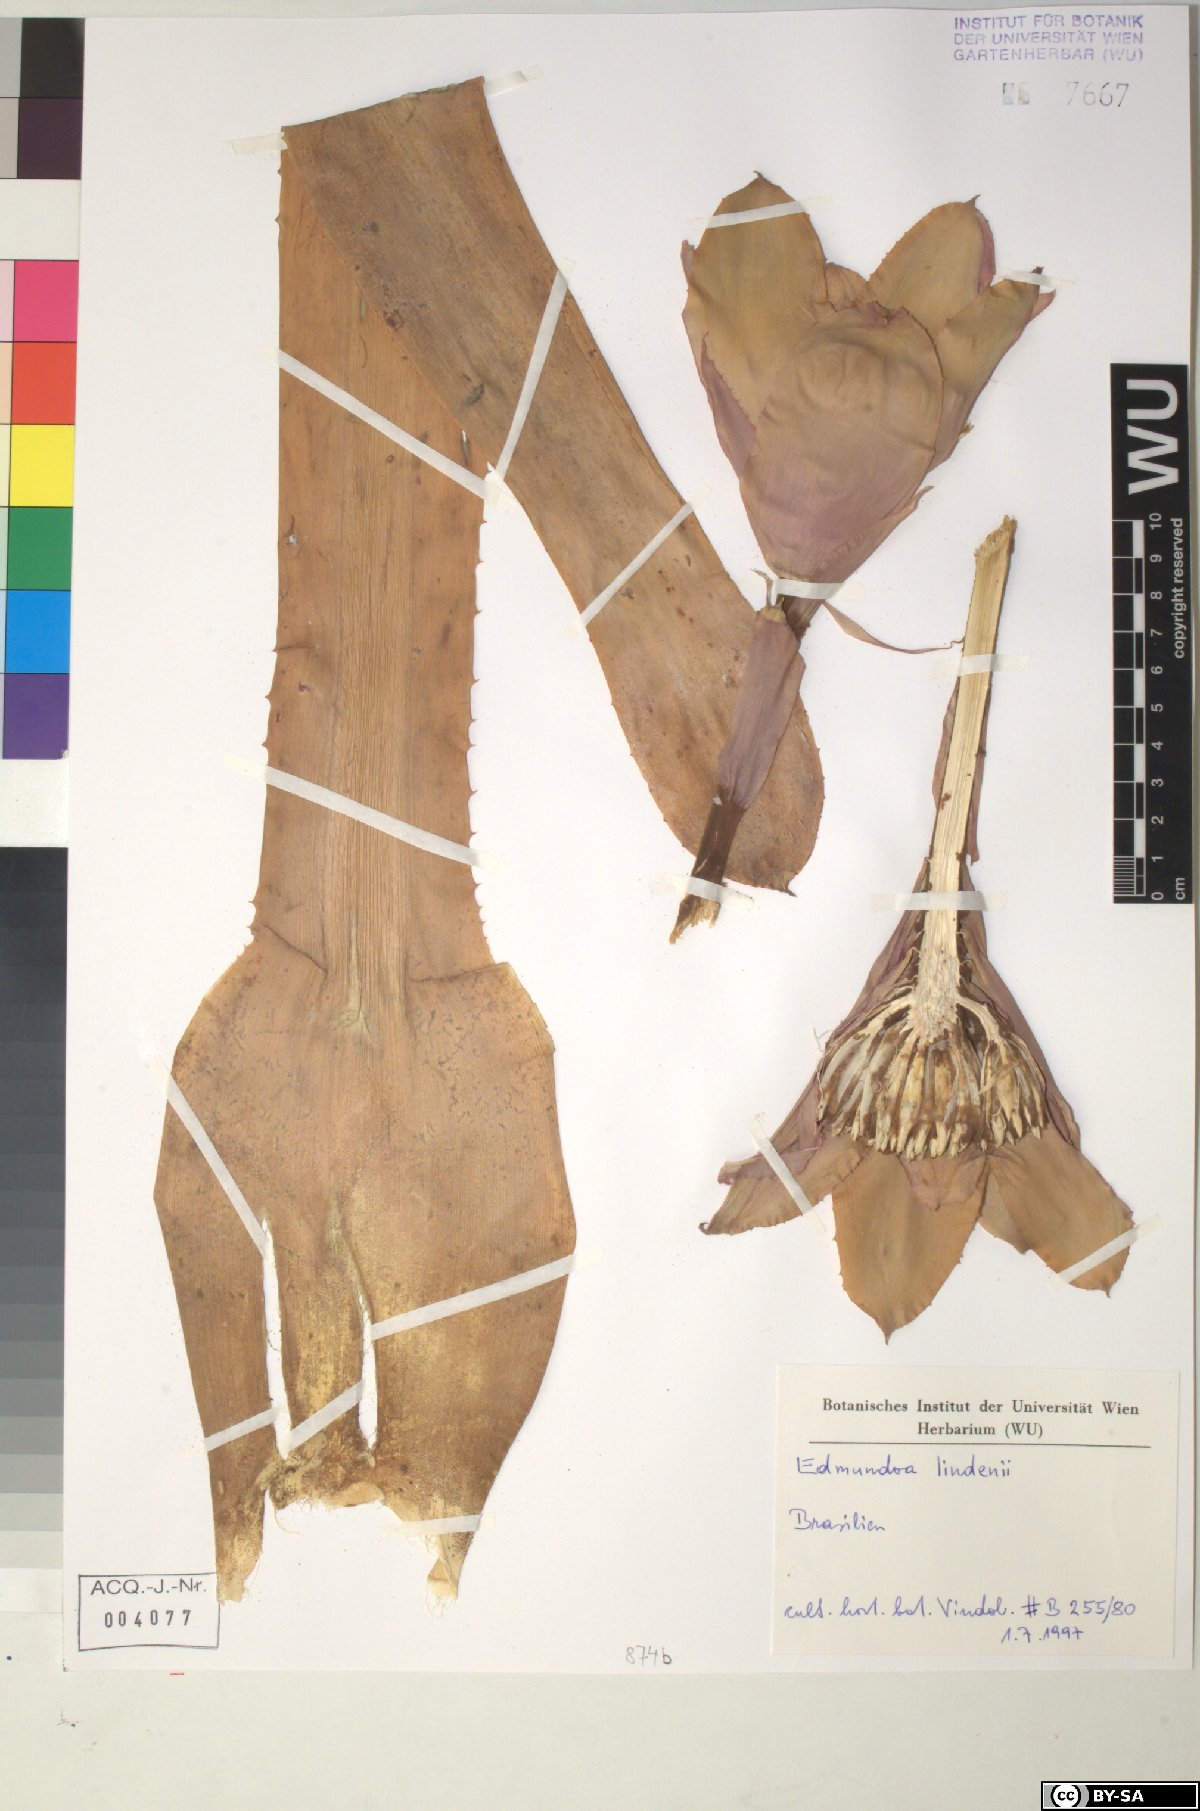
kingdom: Plantae
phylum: Tracheophyta
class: Liliopsida
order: Poales
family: Bromeliaceae
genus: Edmundoa
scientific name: Edmundoa
